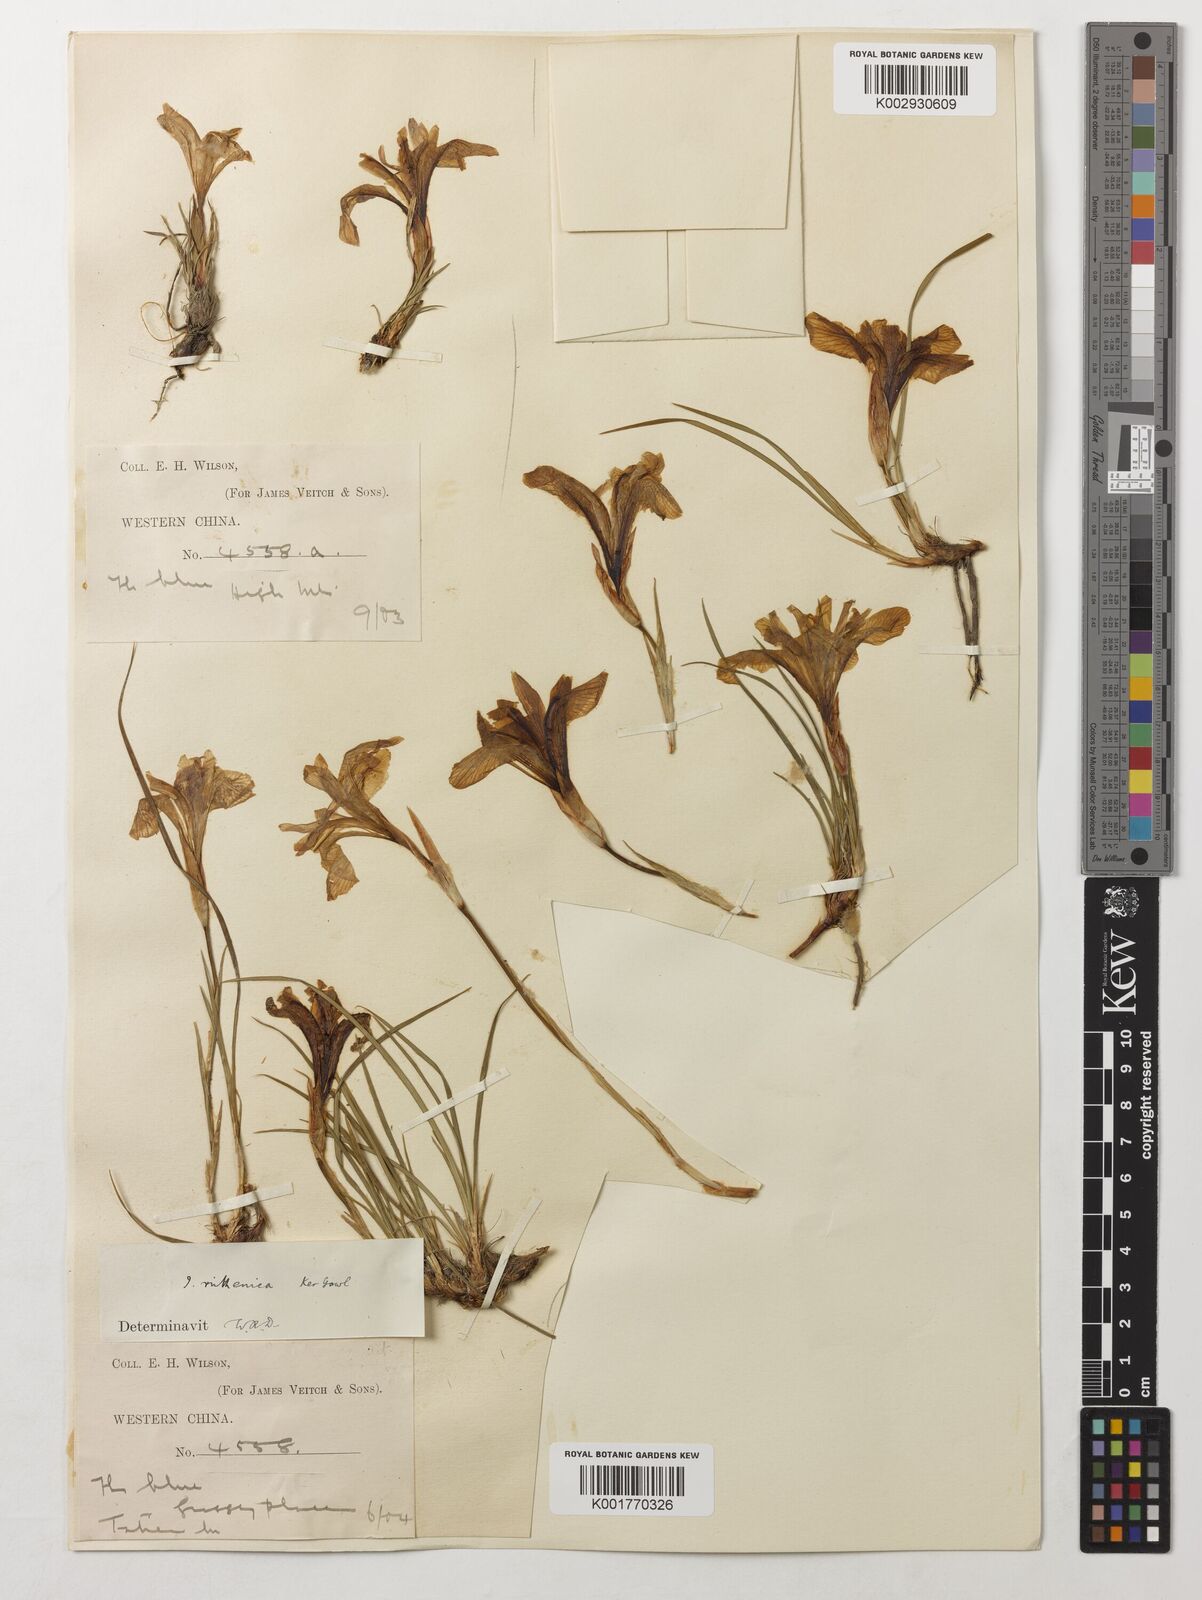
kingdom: Plantae
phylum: Tracheophyta
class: Liliopsida
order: Asparagales
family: Iridaceae
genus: Iris
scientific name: Iris ruthenica
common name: Purple-bract iris
